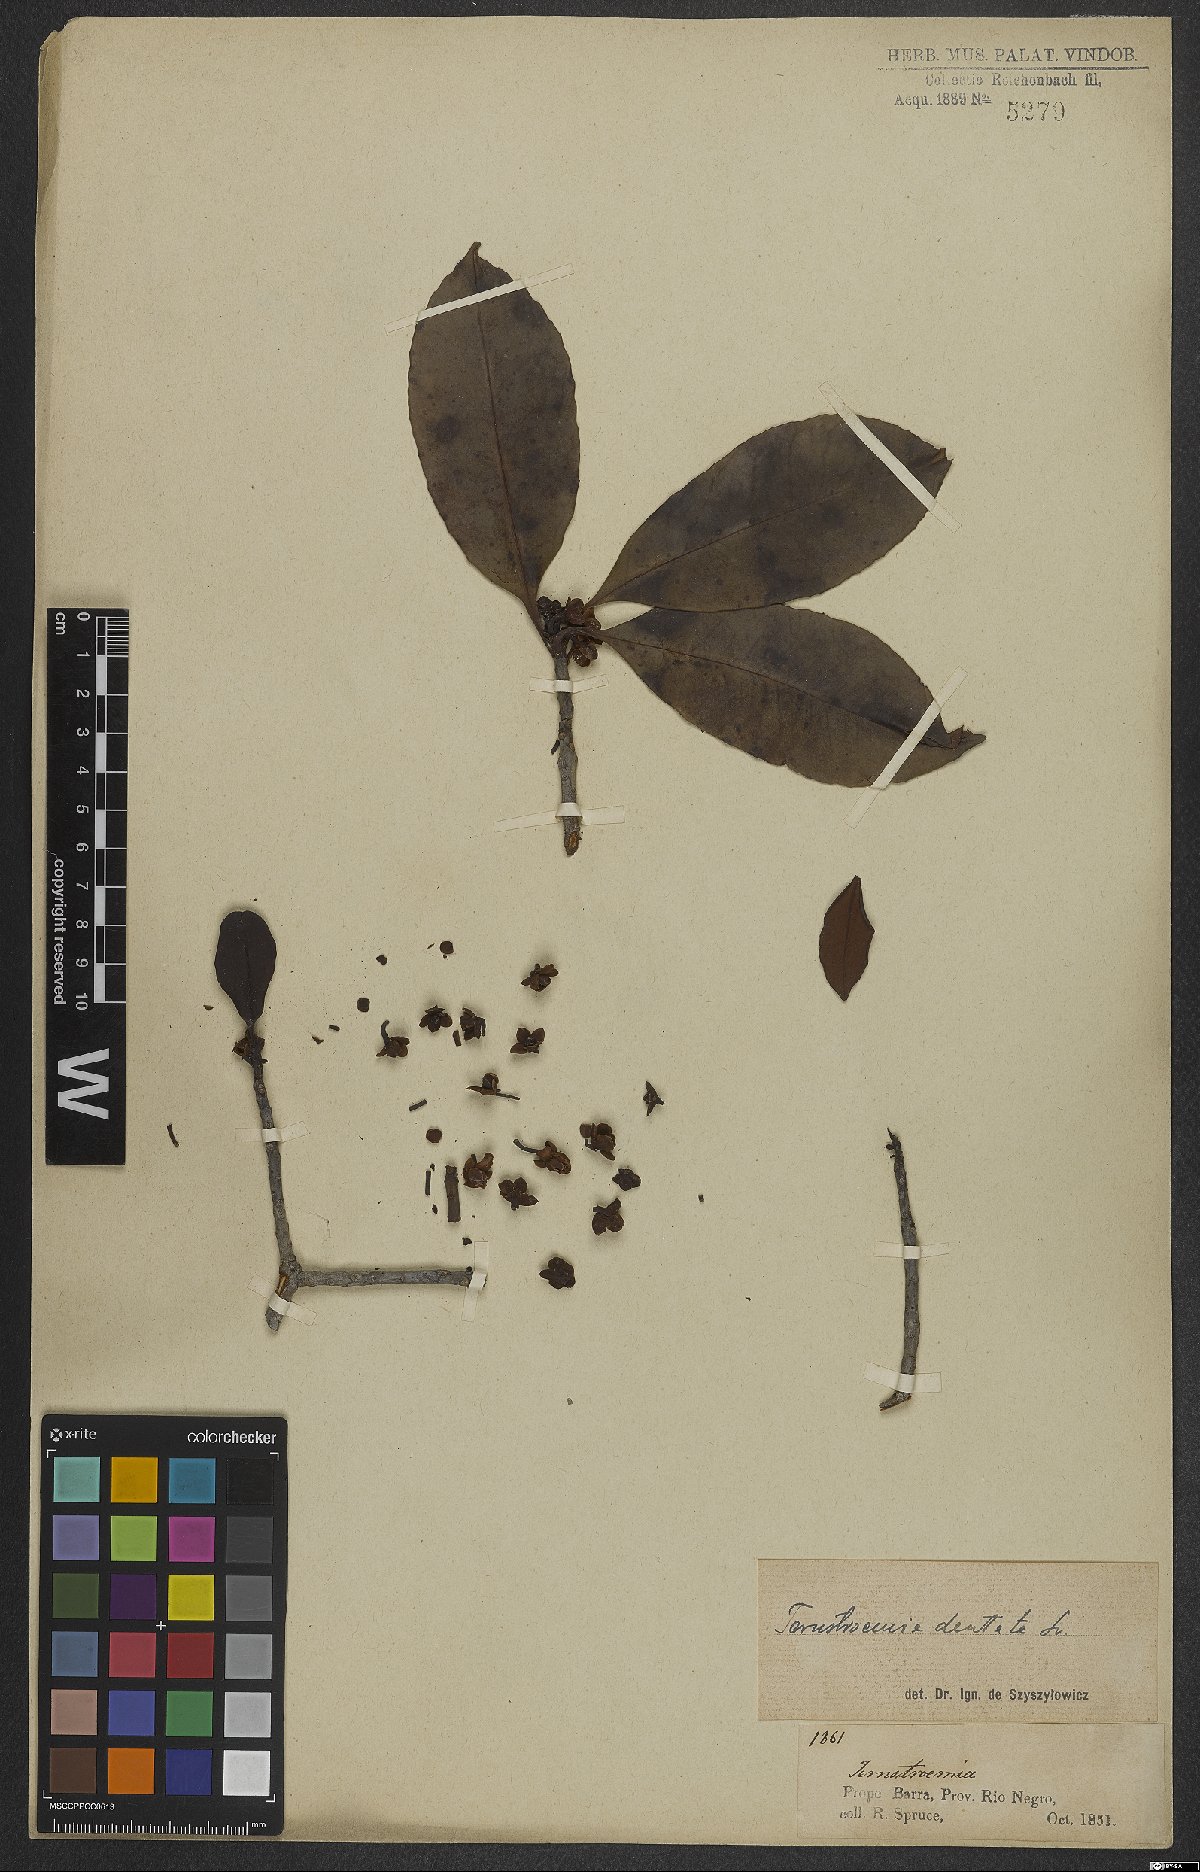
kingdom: Plantae
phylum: Tracheophyta
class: Magnoliopsida
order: Ericales
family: Pentaphylacaceae
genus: Ternstroemia
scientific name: Ternstroemia dentata
